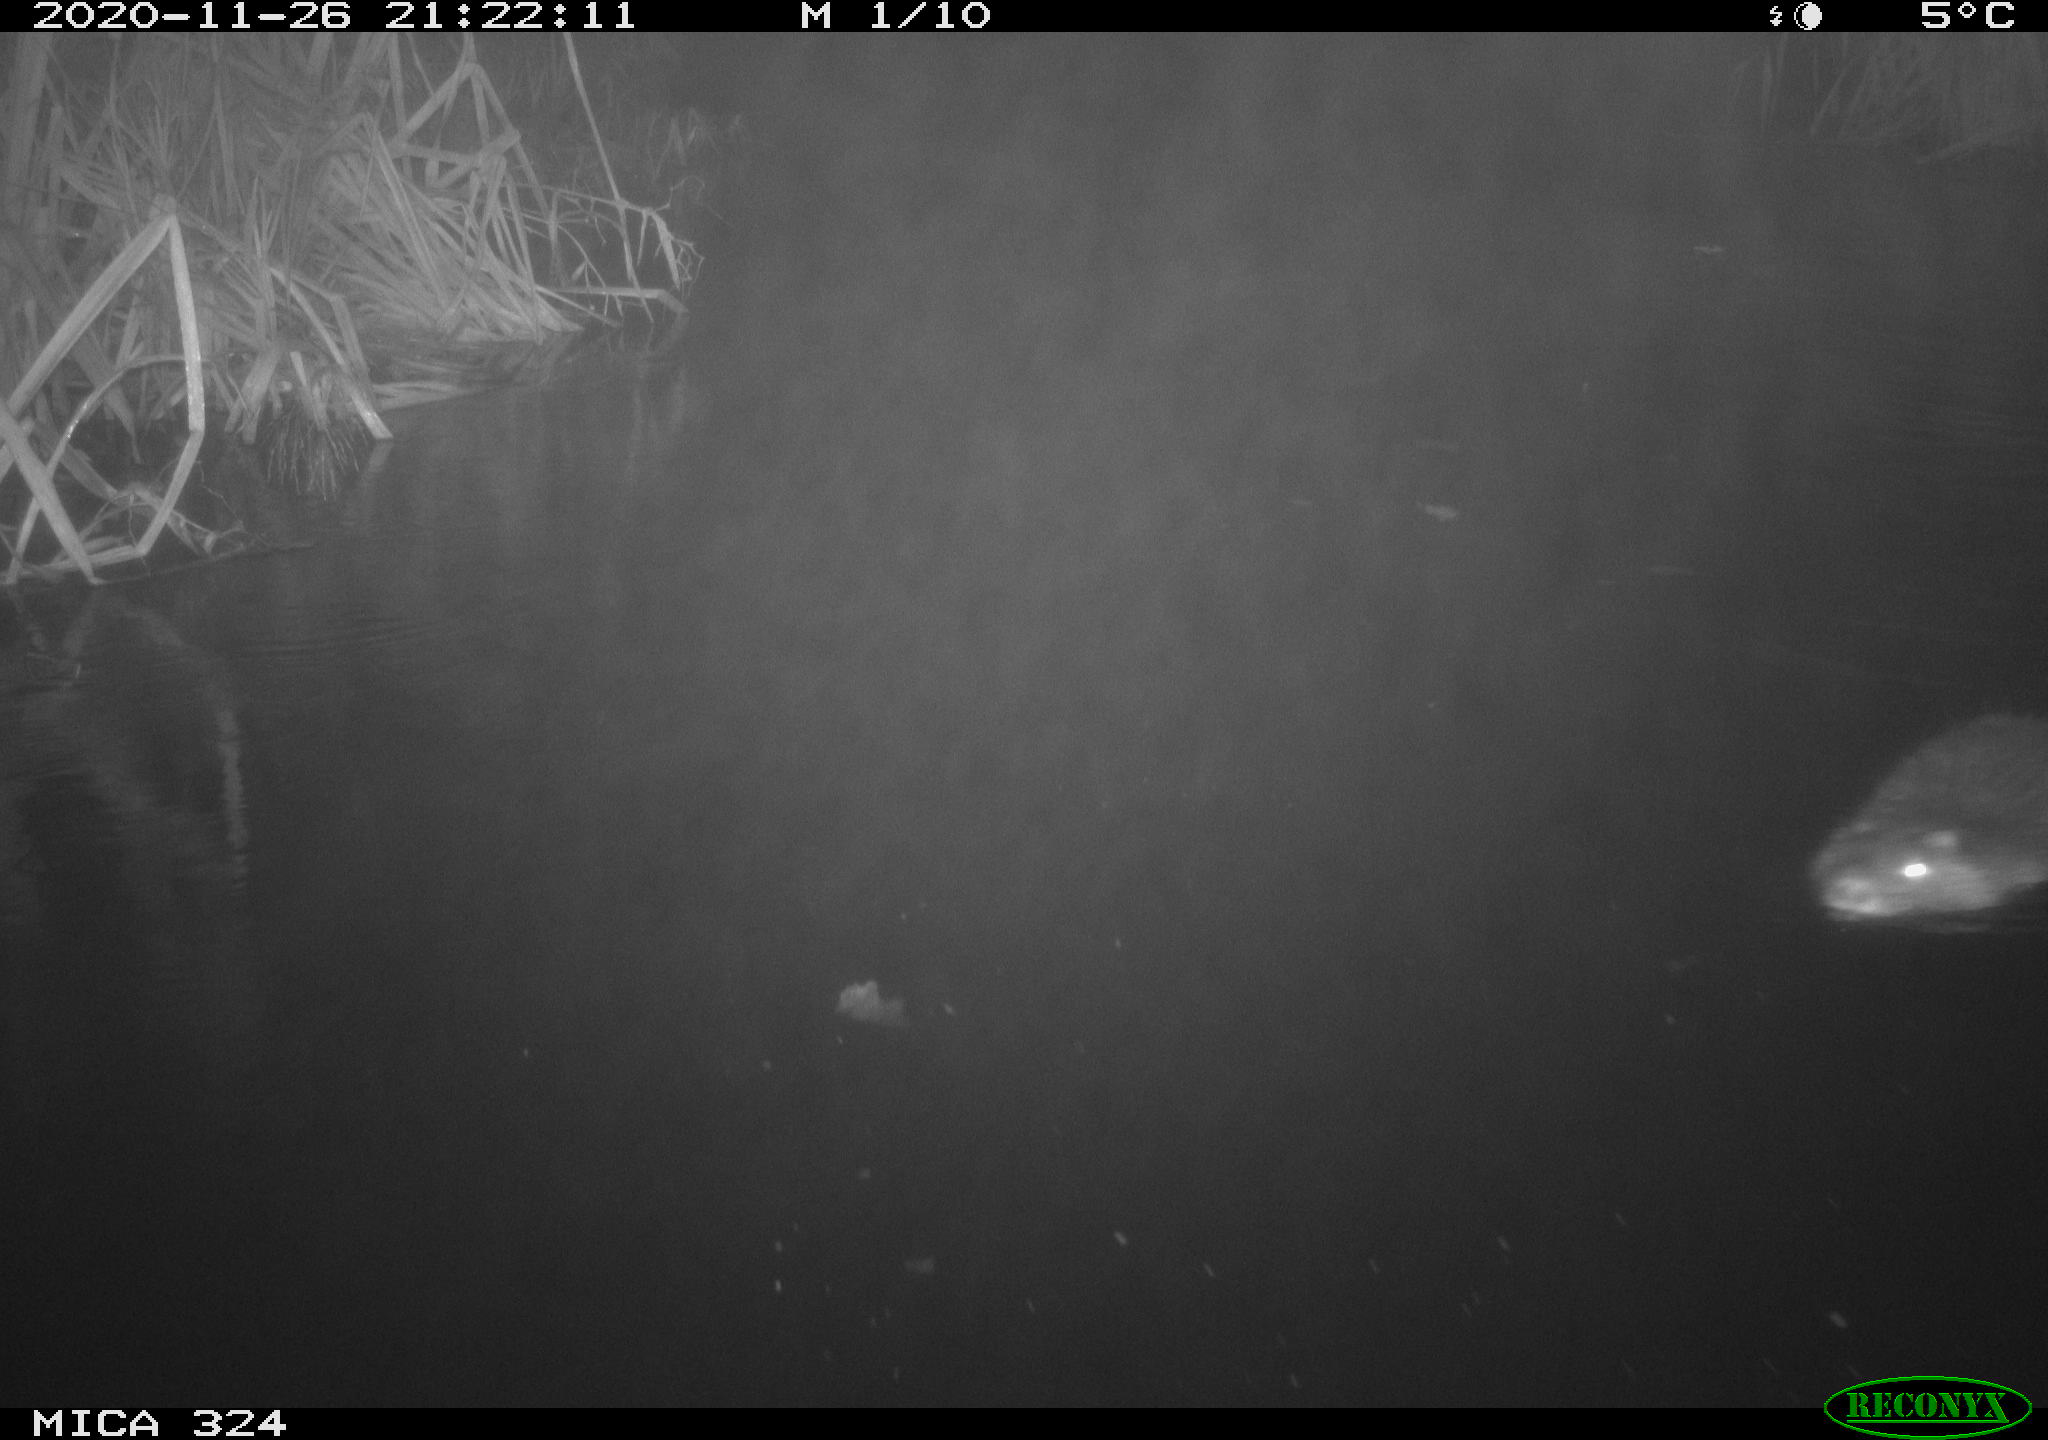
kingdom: Animalia
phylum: Chordata
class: Mammalia
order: Rodentia
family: Myocastoridae
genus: Myocastor
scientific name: Myocastor coypus
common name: Coypu
